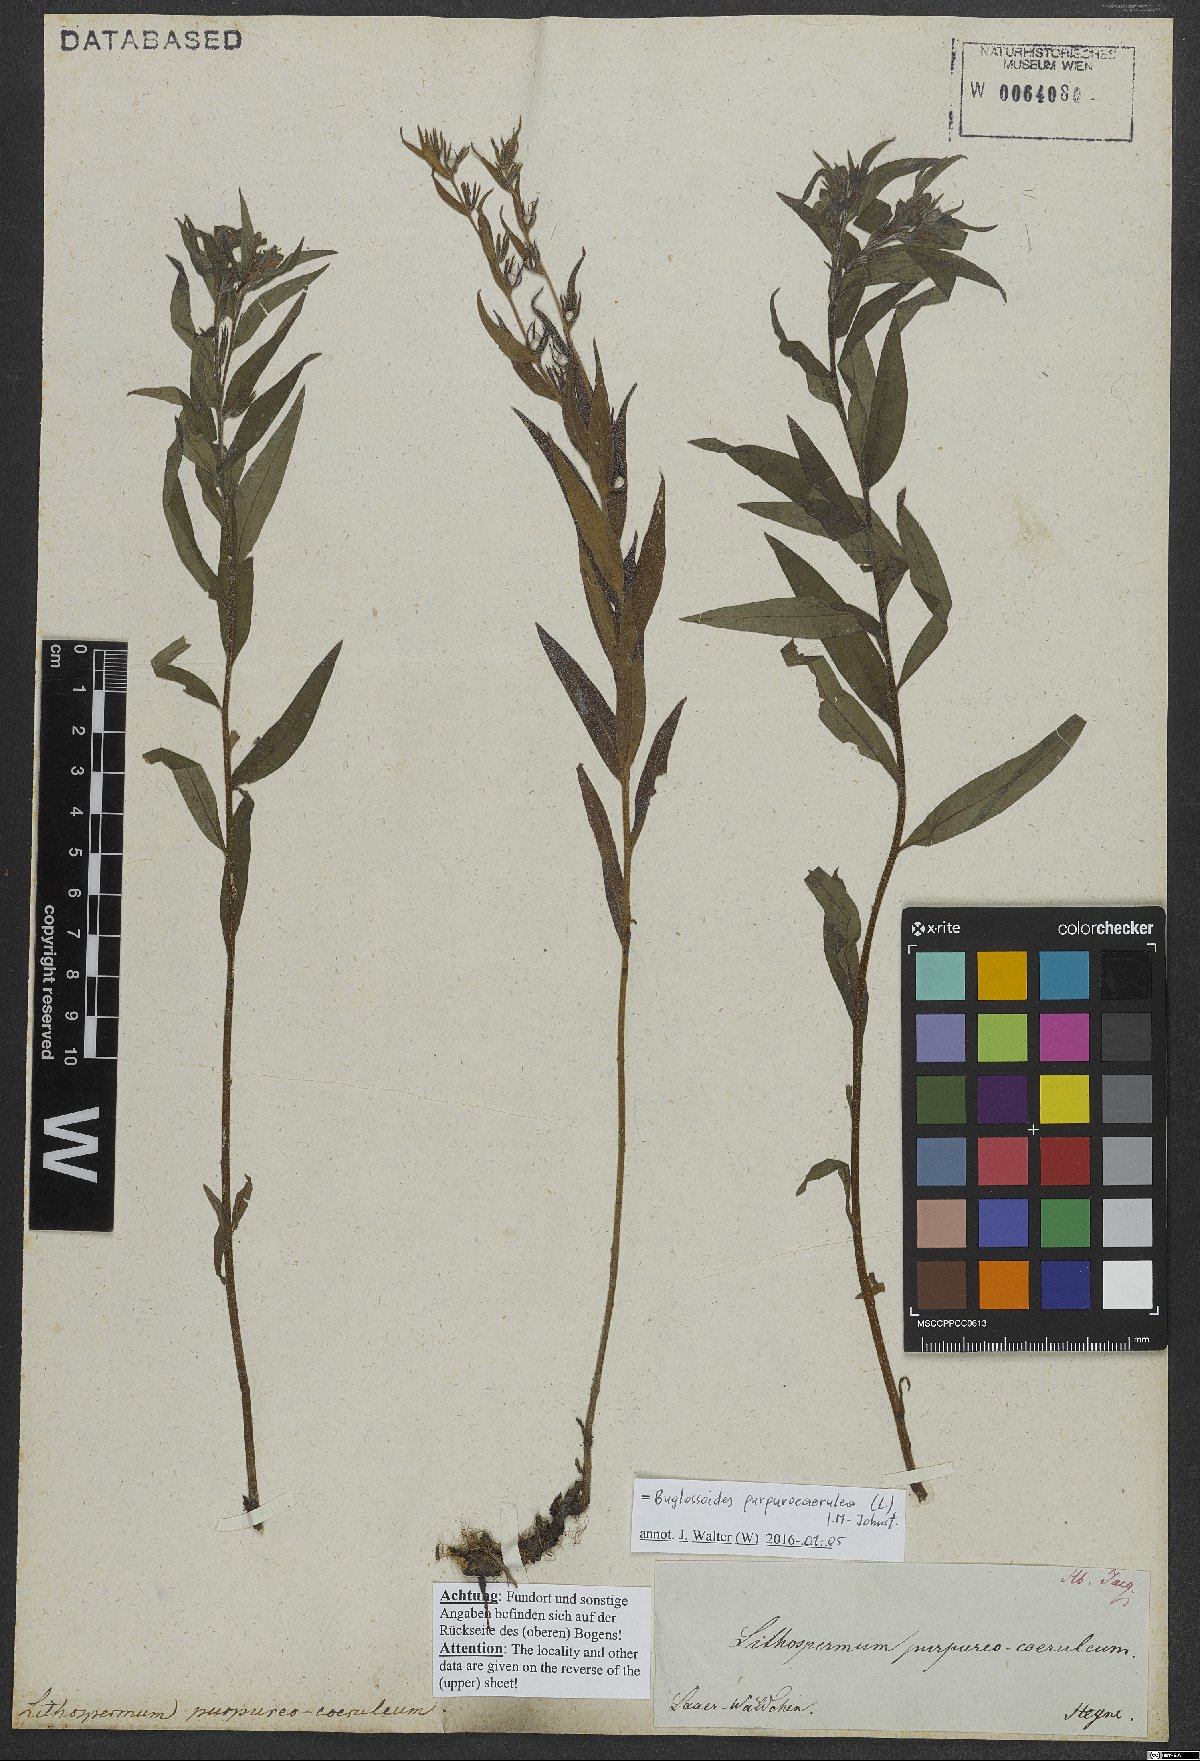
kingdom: Plantae
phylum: Tracheophyta
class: Magnoliopsida
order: Boraginales
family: Boraginaceae
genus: Aegonychon
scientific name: Aegonychon purpurocaeruleum
